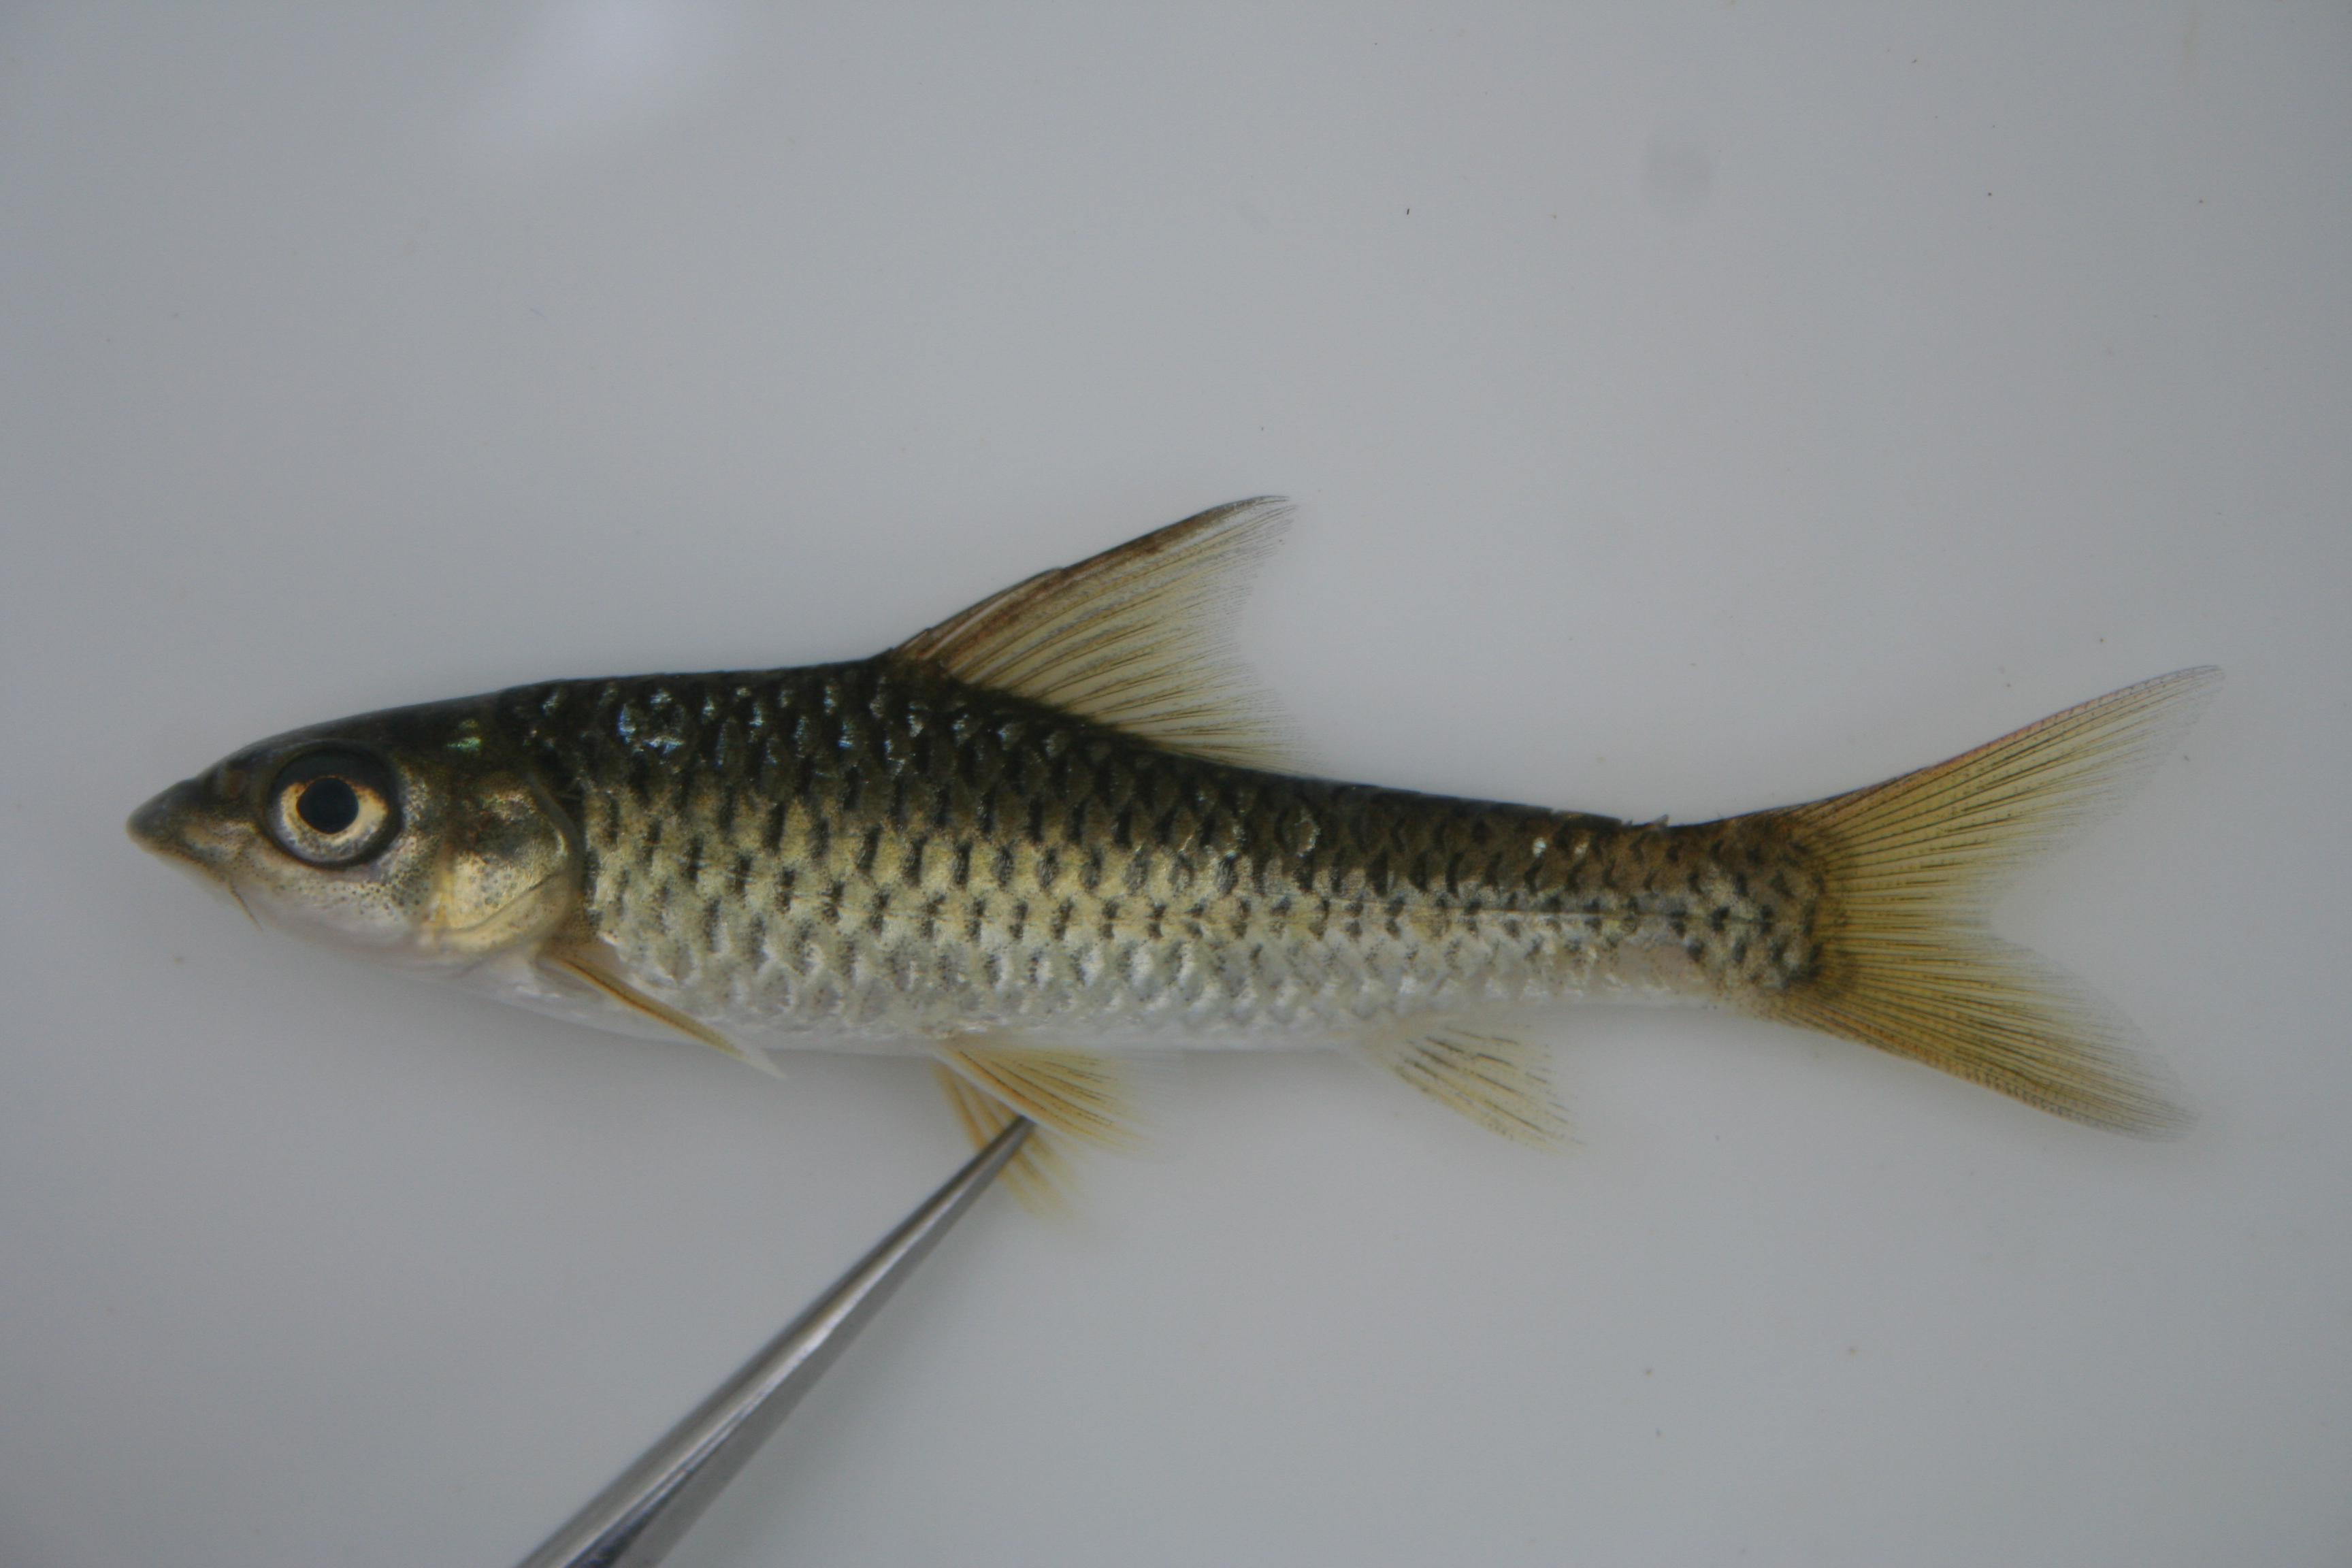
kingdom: Animalia
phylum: Chordata
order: Cypriniformes
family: Cyprinidae
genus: Barbus
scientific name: Barbus
